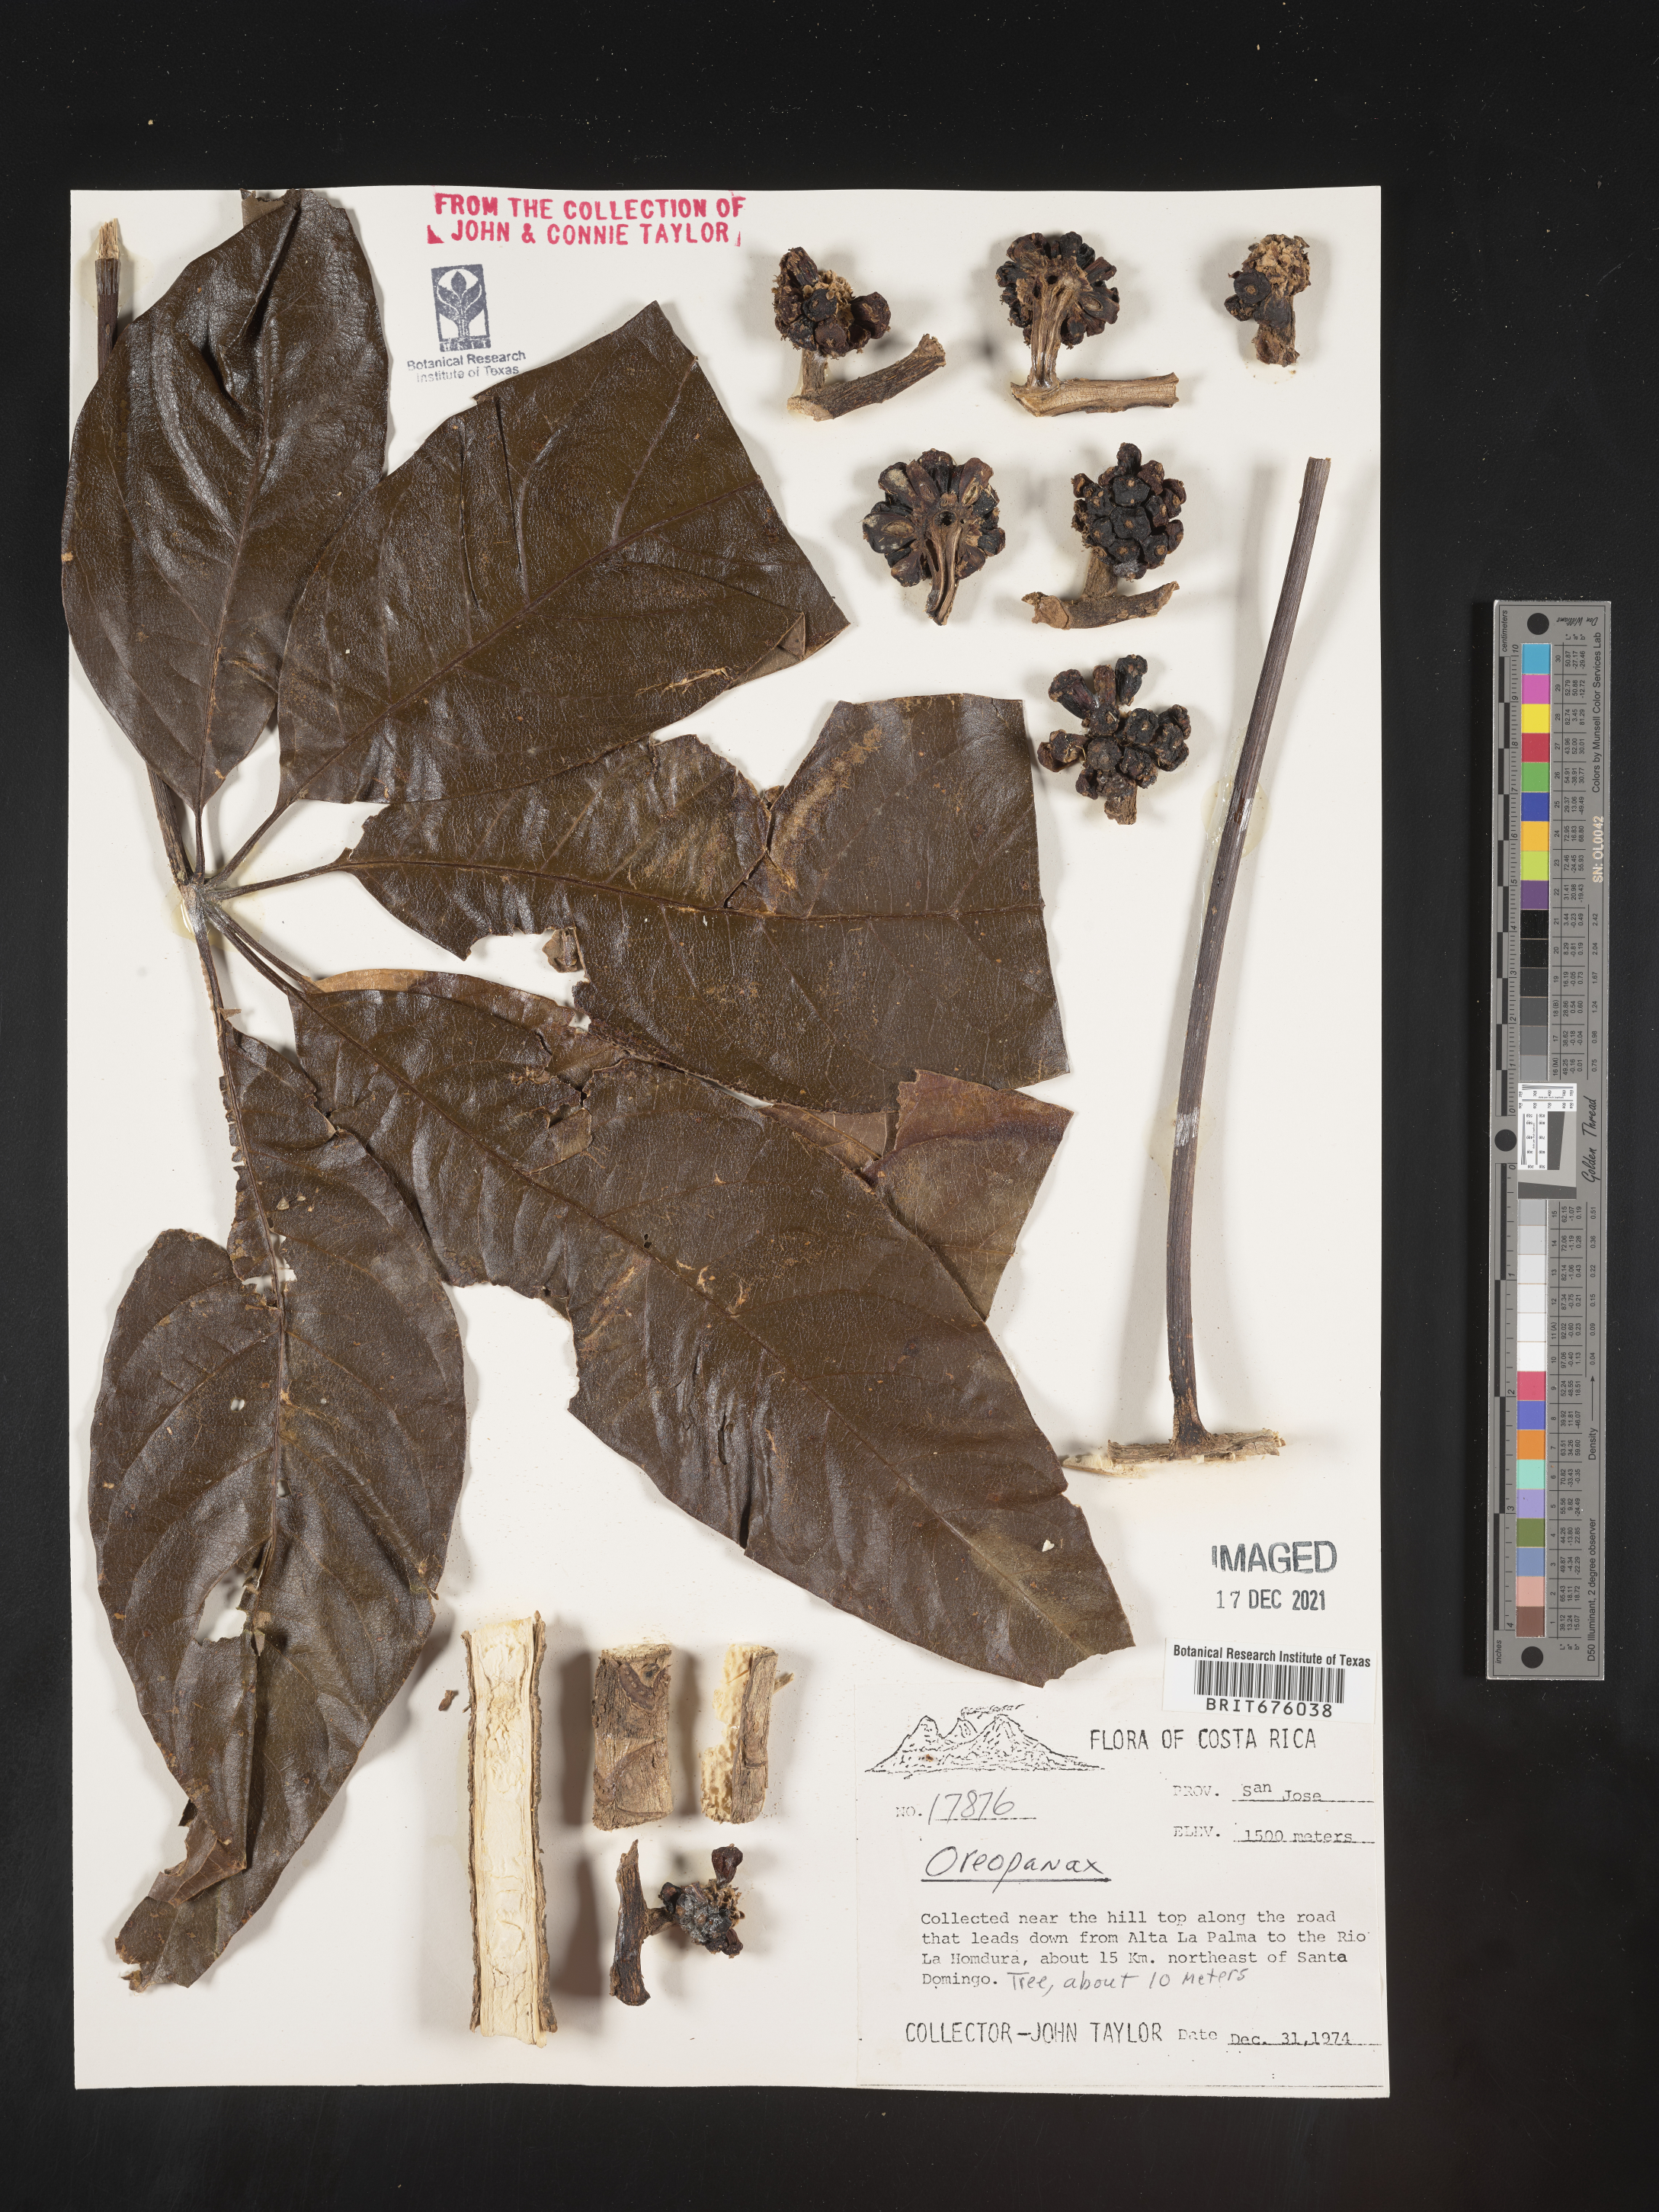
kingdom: Plantae
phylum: Tracheophyta
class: Magnoliopsida
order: Apiales
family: Araliaceae
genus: Oreopanax
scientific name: Oreopanax
